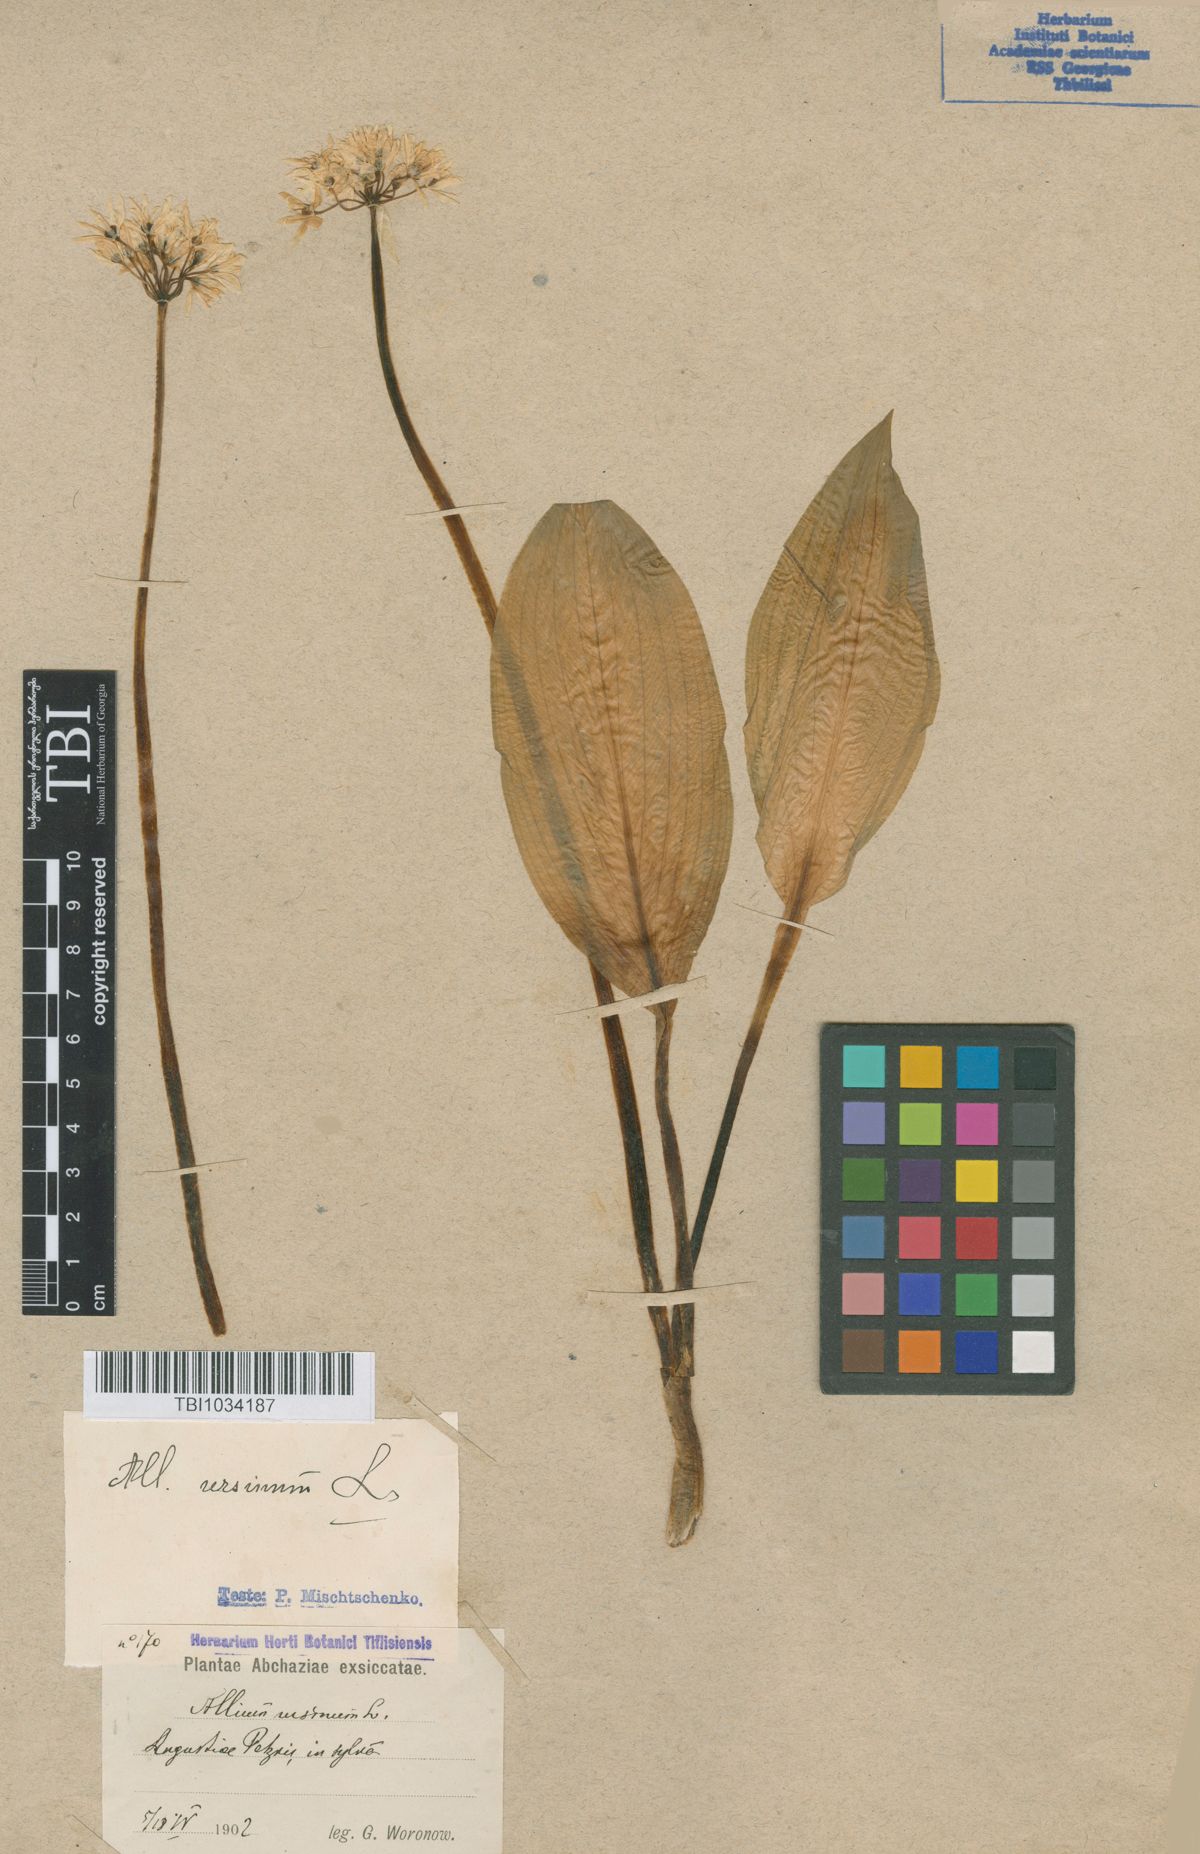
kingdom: Plantae
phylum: Tracheophyta
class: Liliopsida
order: Asparagales
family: Amaryllidaceae
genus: Allium
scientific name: Allium ursinum
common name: Ramsons
